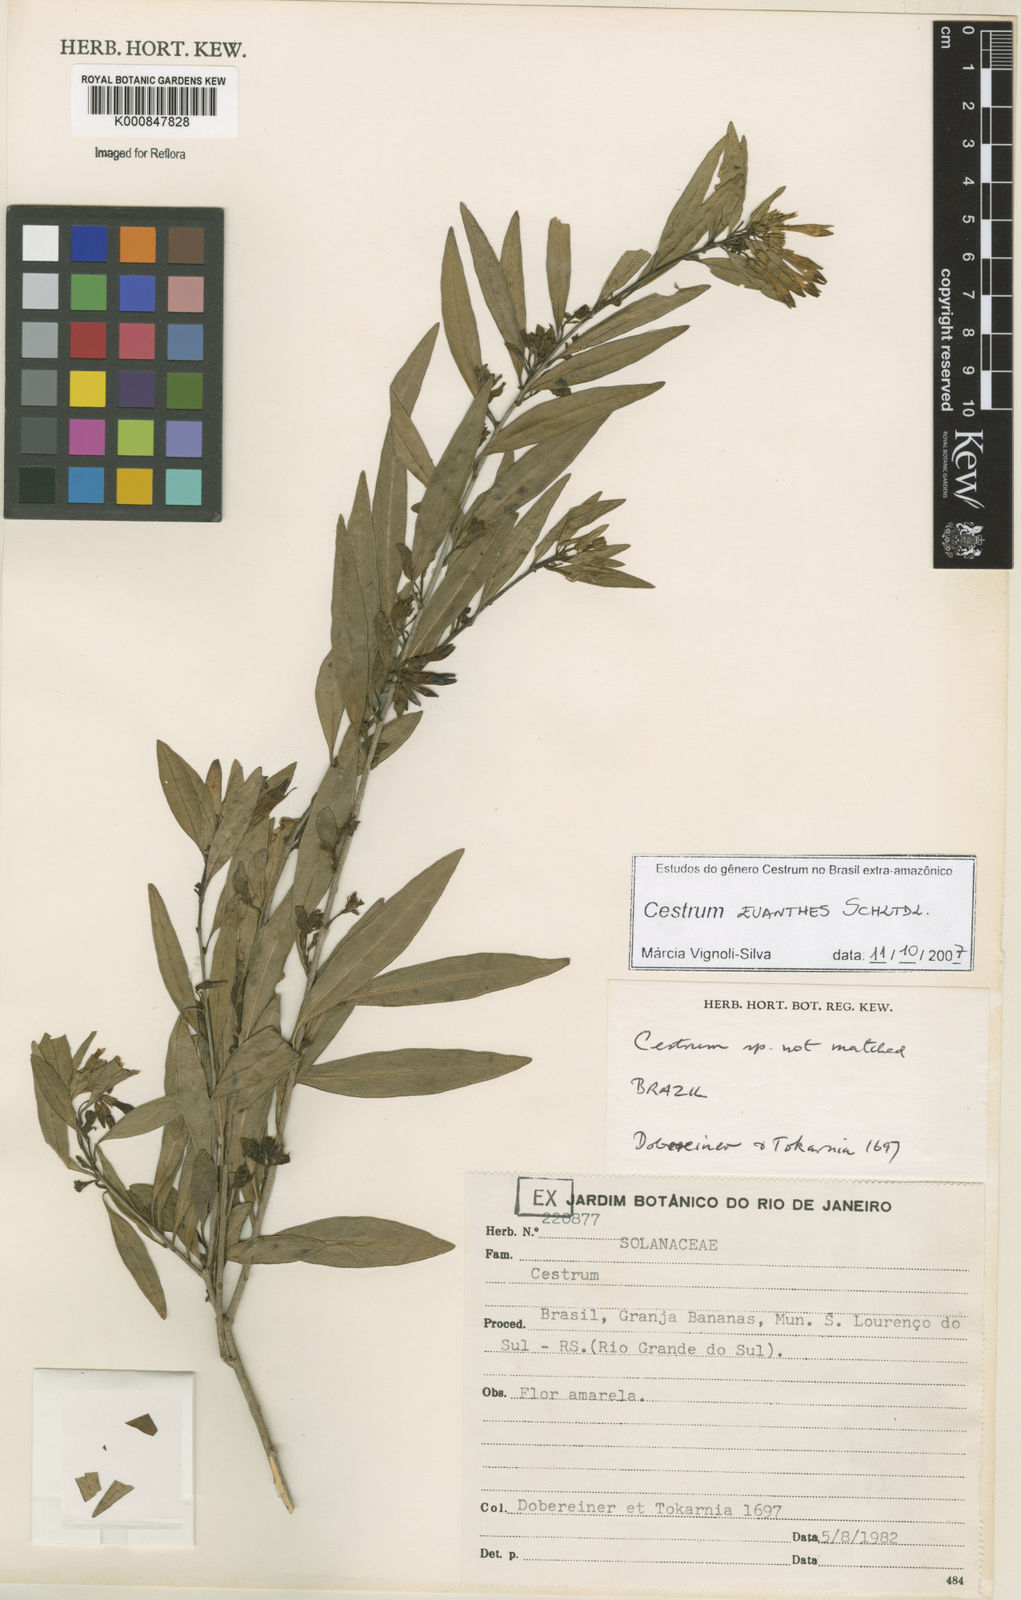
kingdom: Plantae
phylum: Tracheophyta
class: Magnoliopsida
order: Solanales
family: Solanaceae
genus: Cestrum
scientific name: Cestrum euanthes
